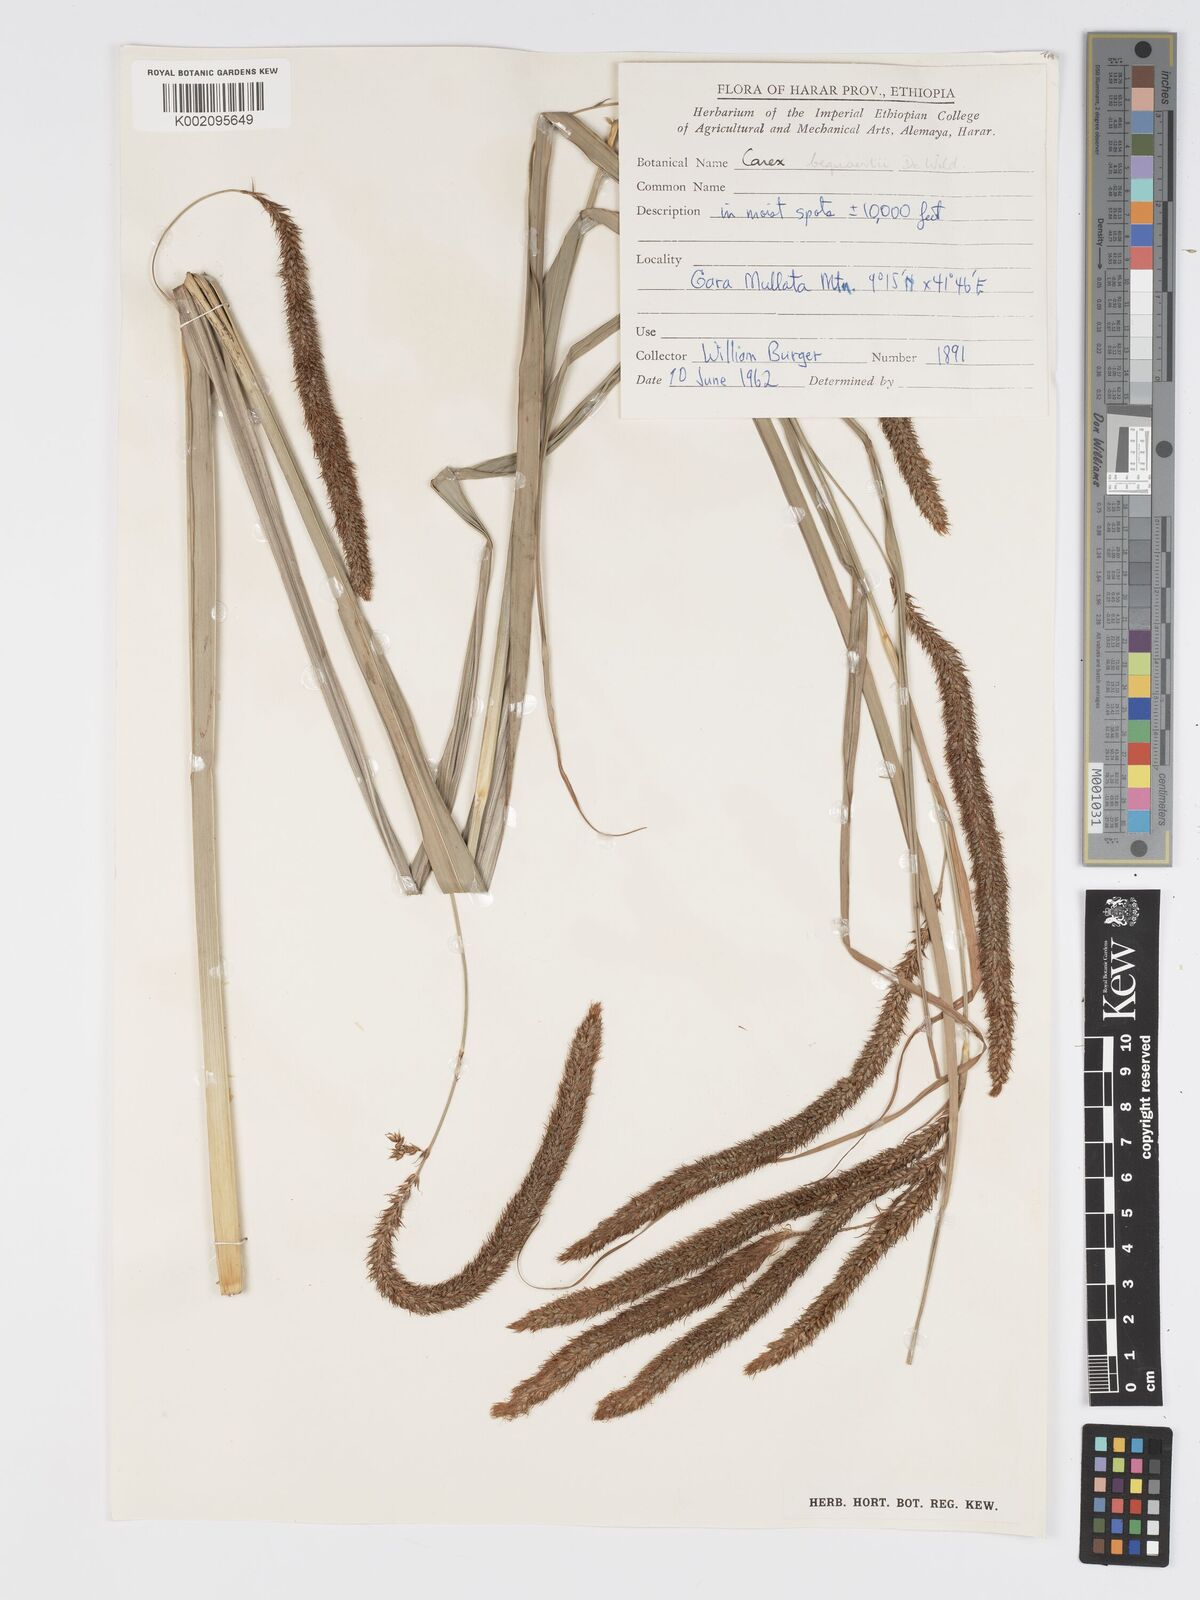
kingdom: Plantae
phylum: Tracheophyta
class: Liliopsida
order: Poales
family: Cyperaceae
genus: Carex
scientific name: Carex bequaertii
